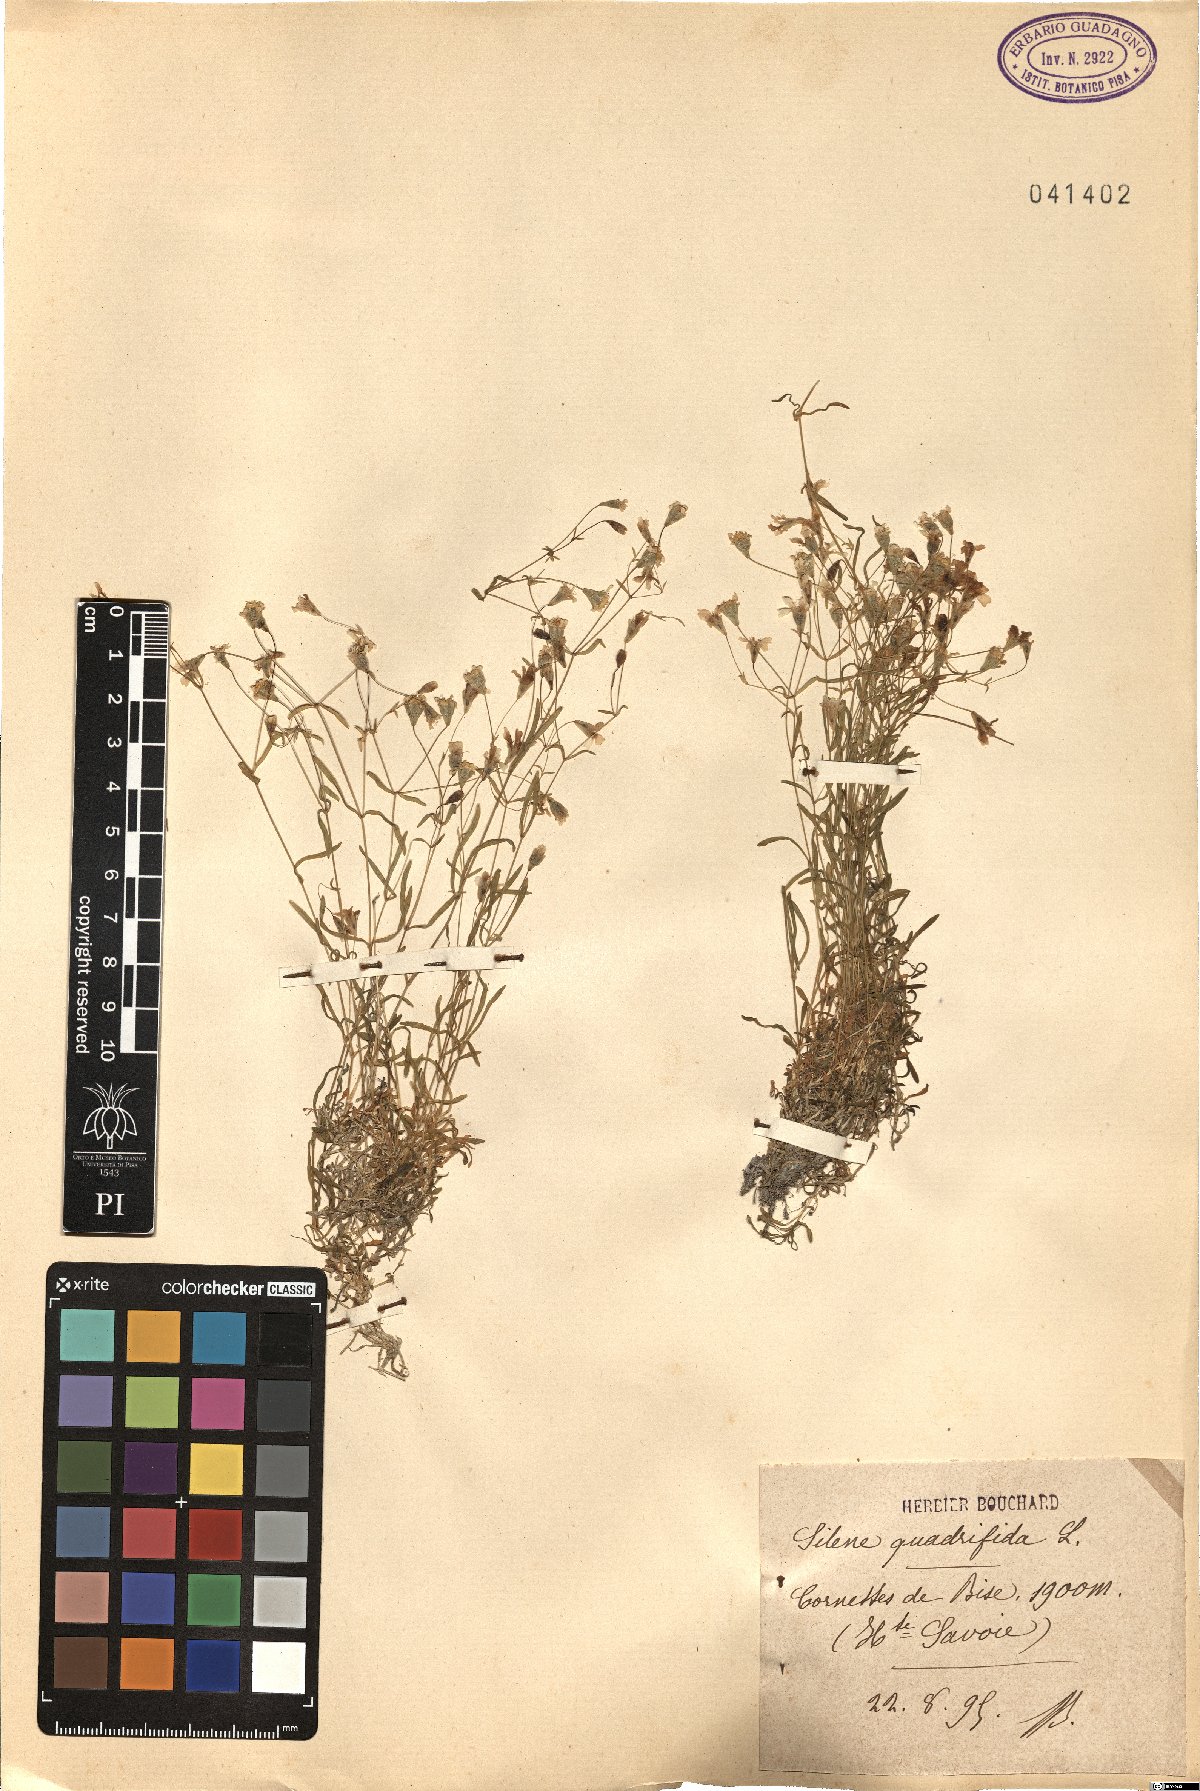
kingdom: Plantae
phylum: Tracheophyta
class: Magnoliopsida
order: Caryophyllales
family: Caryophyllaceae
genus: Heliosperma
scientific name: Heliosperma alpestre
